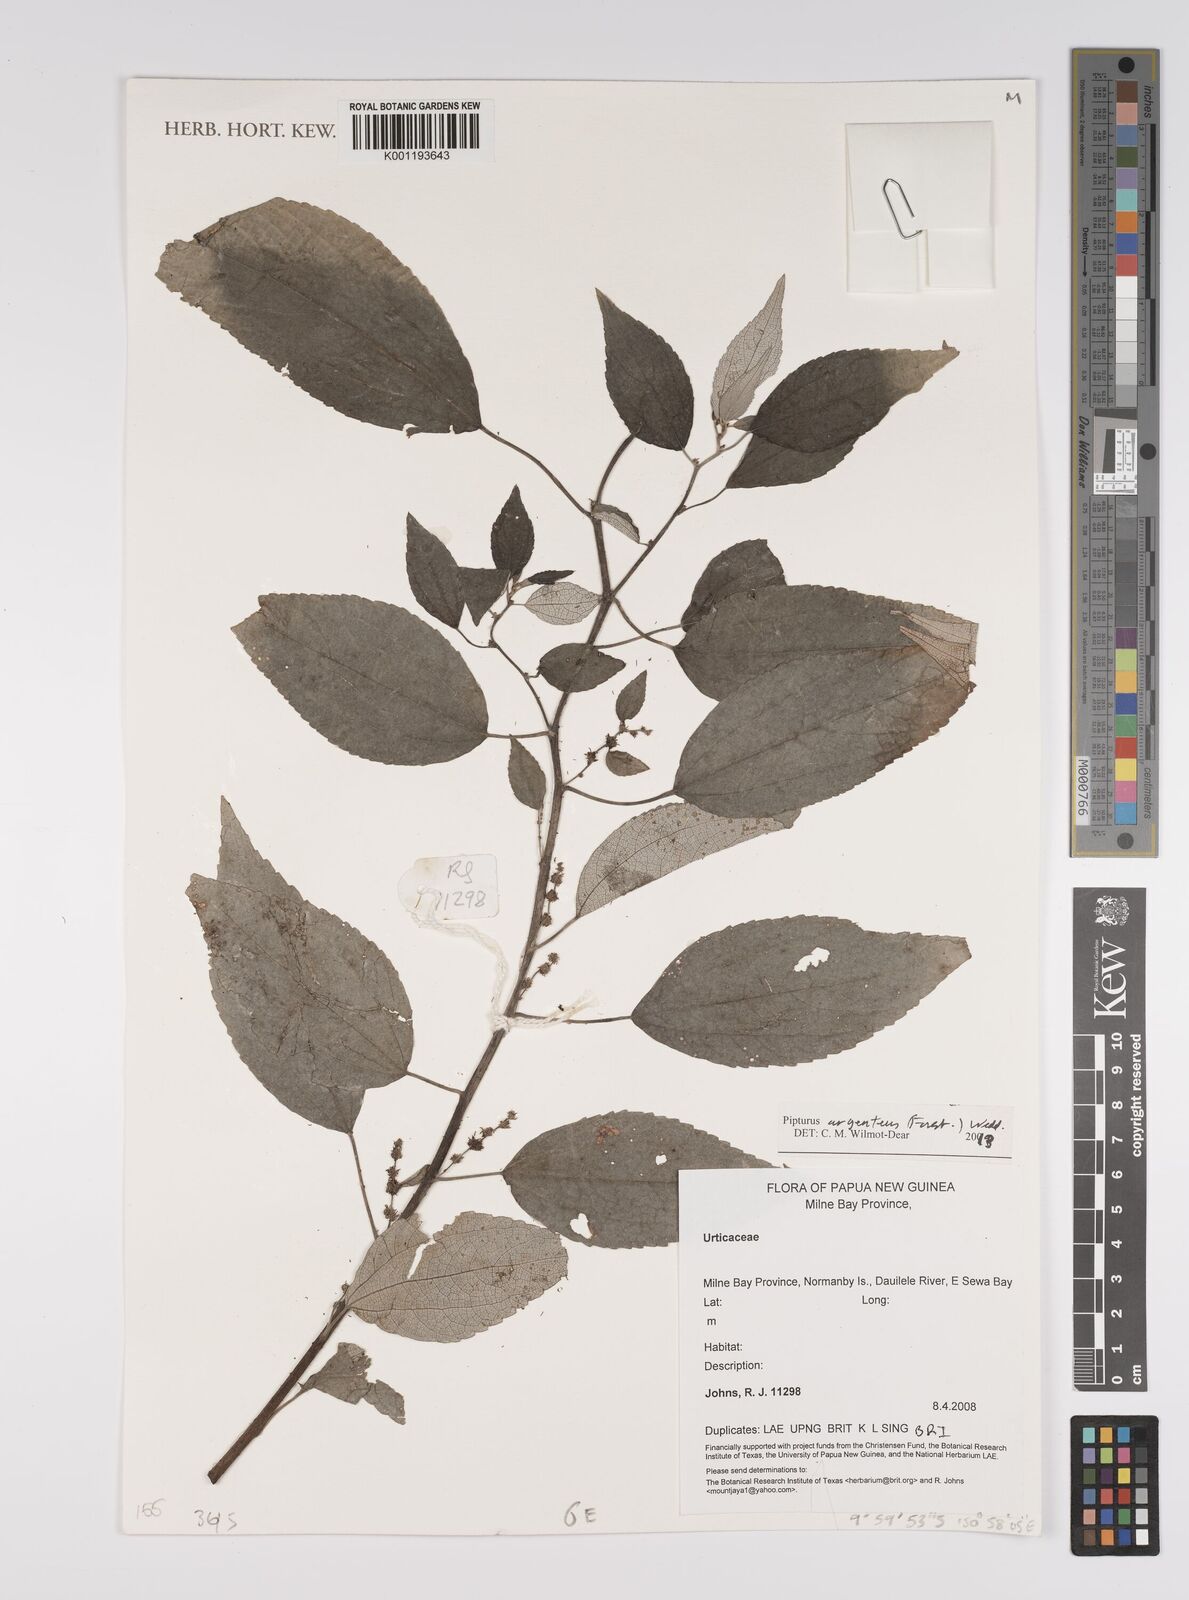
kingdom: Plantae
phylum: Tracheophyta
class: Magnoliopsida
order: Rosales
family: Urticaceae
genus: Pipturus
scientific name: Pipturus argenteus
